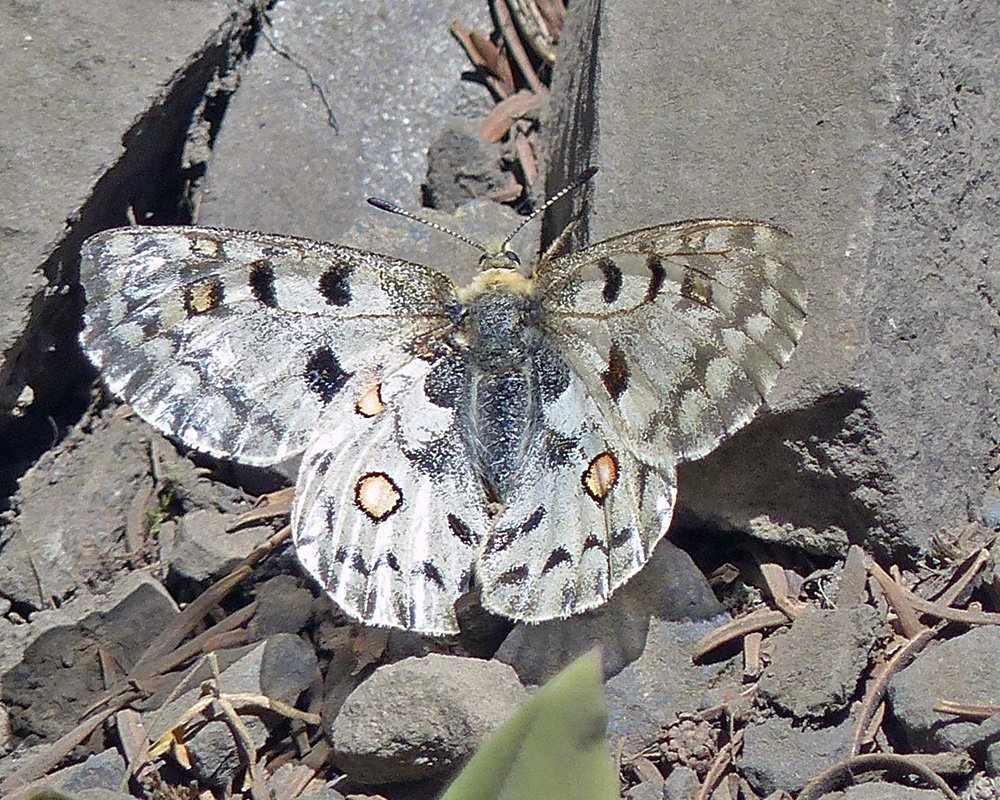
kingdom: Animalia
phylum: Arthropoda
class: Insecta
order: Lepidoptera
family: Papilionidae
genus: Parnassius
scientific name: Parnassius smintheus
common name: Rocky Mountain Parnassian
